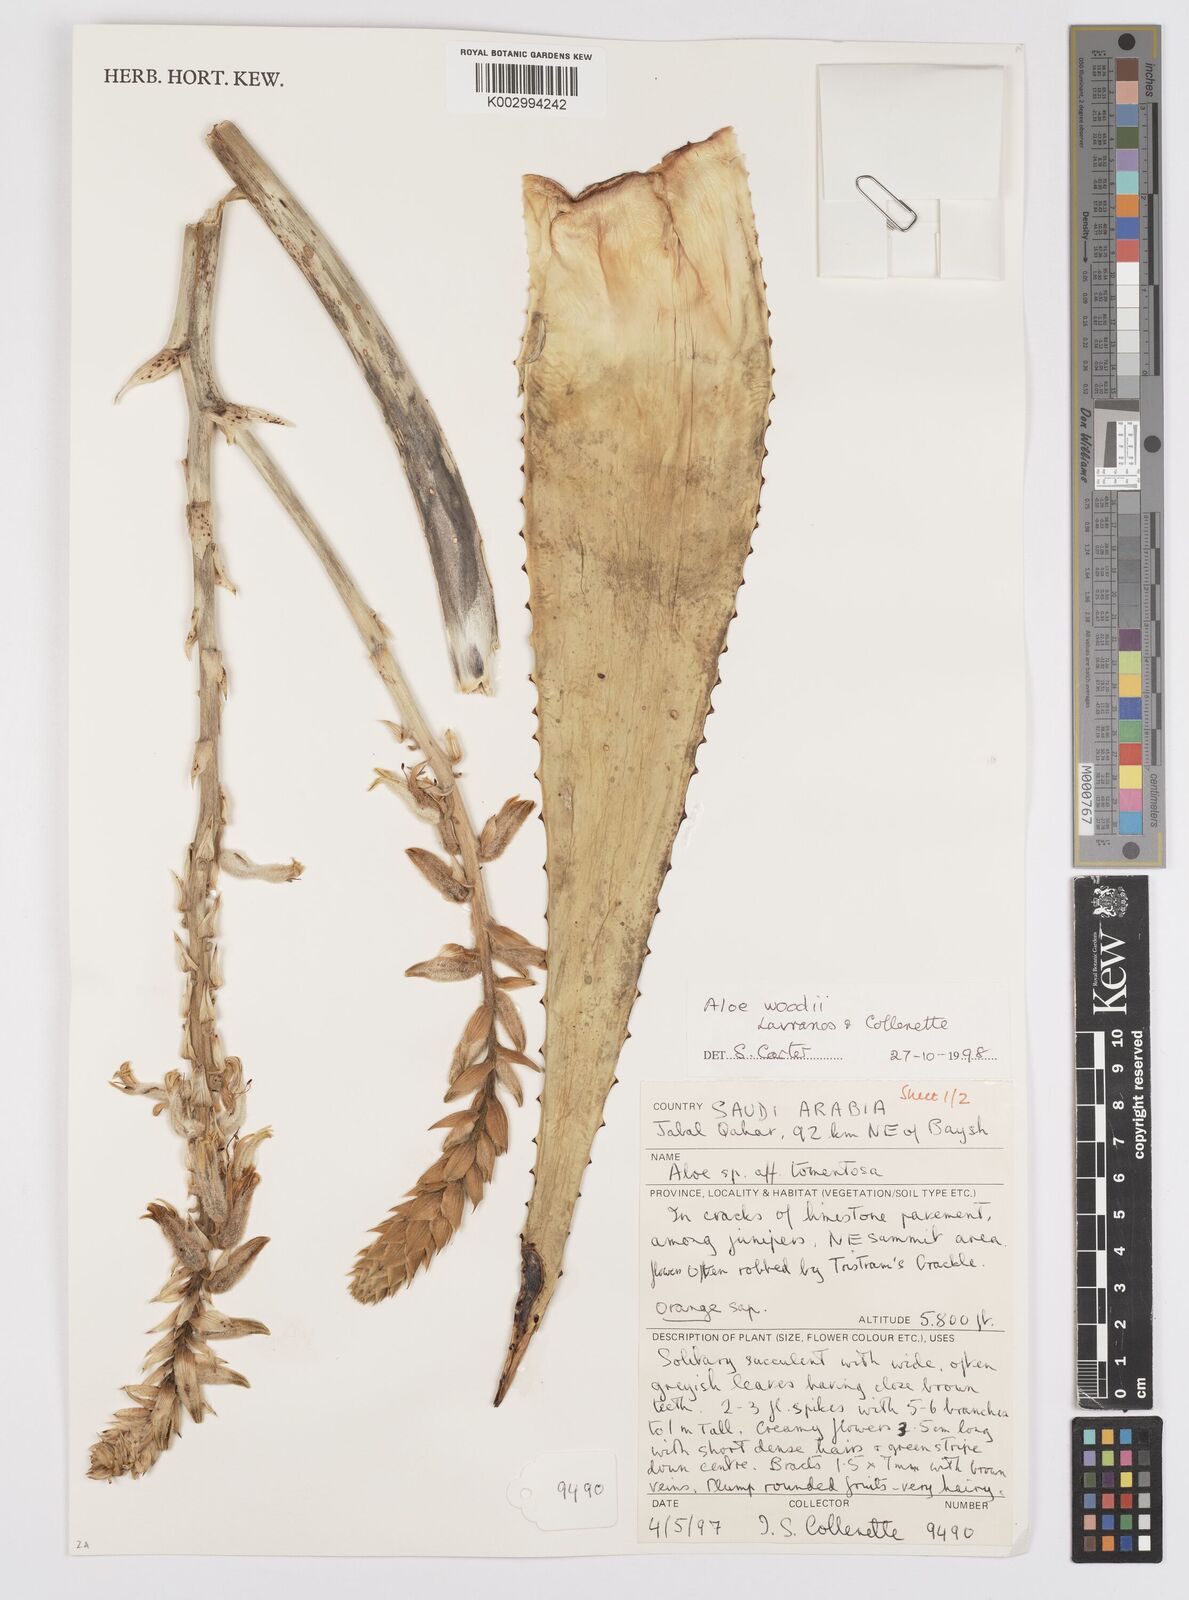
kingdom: Plantae
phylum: Tracheophyta
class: Liliopsida
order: Asparagales
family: Asphodelaceae
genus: Aloe
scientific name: Aloe woodii
